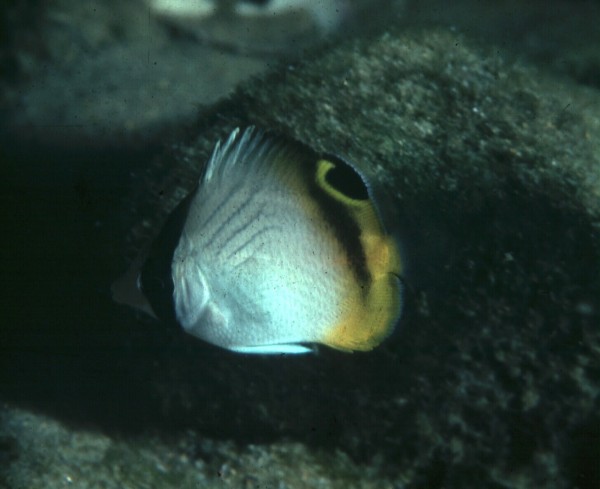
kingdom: Animalia
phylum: Chordata
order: Perciformes
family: Chaetodontidae
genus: Chaetodon
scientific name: Chaetodon vagabundus
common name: Vagabond butterflyfish
